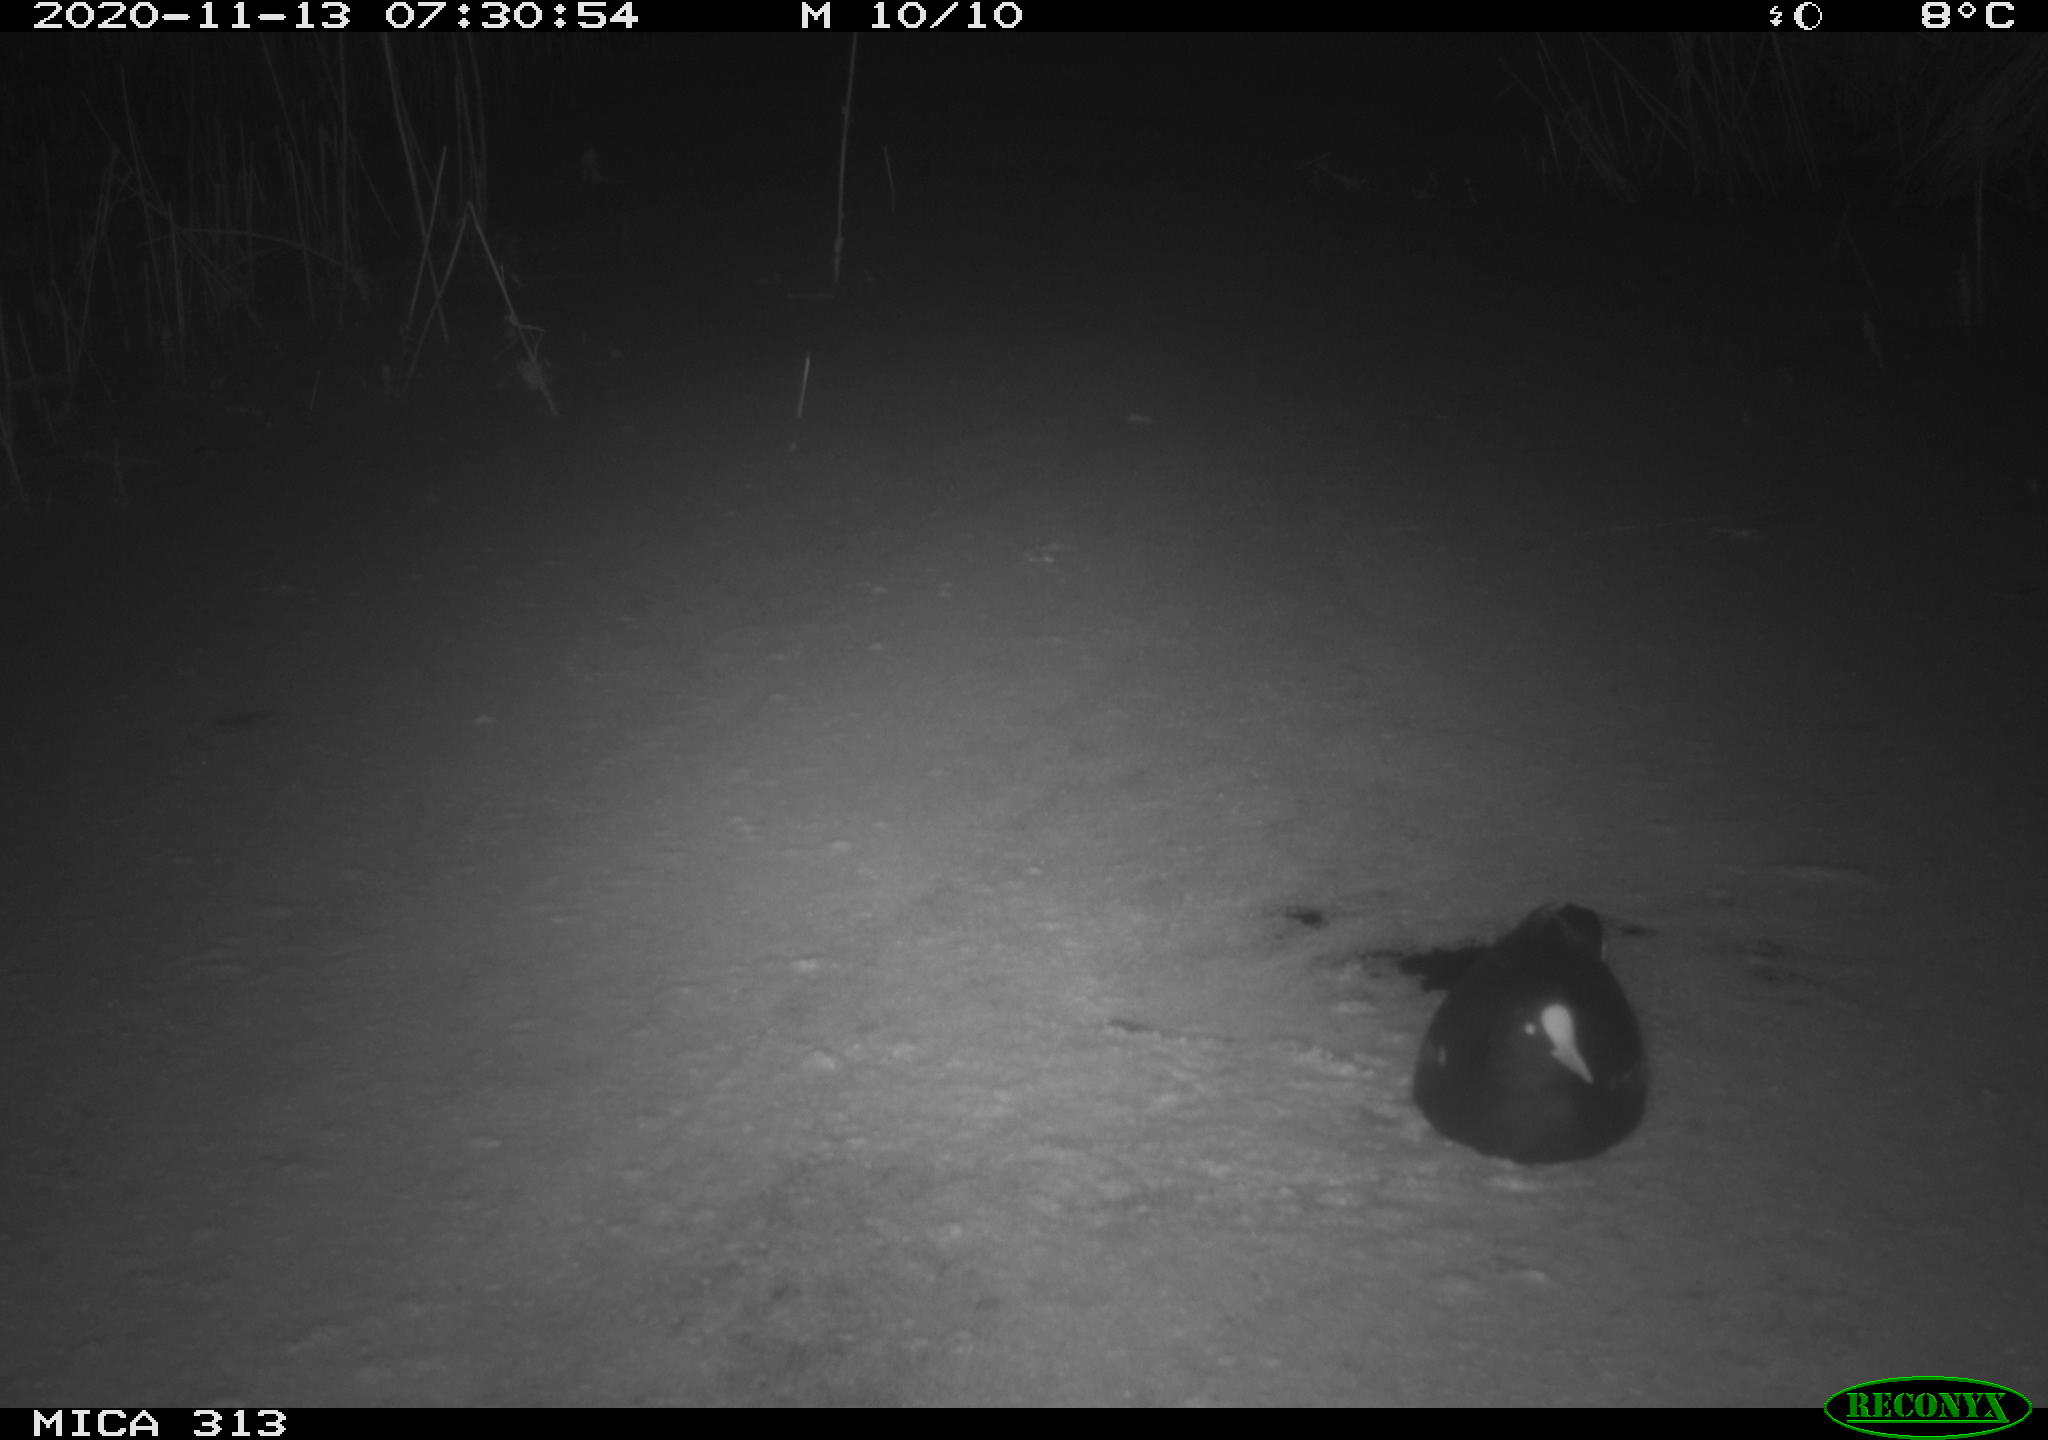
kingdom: Animalia
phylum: Chordata
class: Aves
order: Gruiformes
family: Rallidae
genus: Gallinula
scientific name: Gallinula chloropus
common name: Common moorhen
